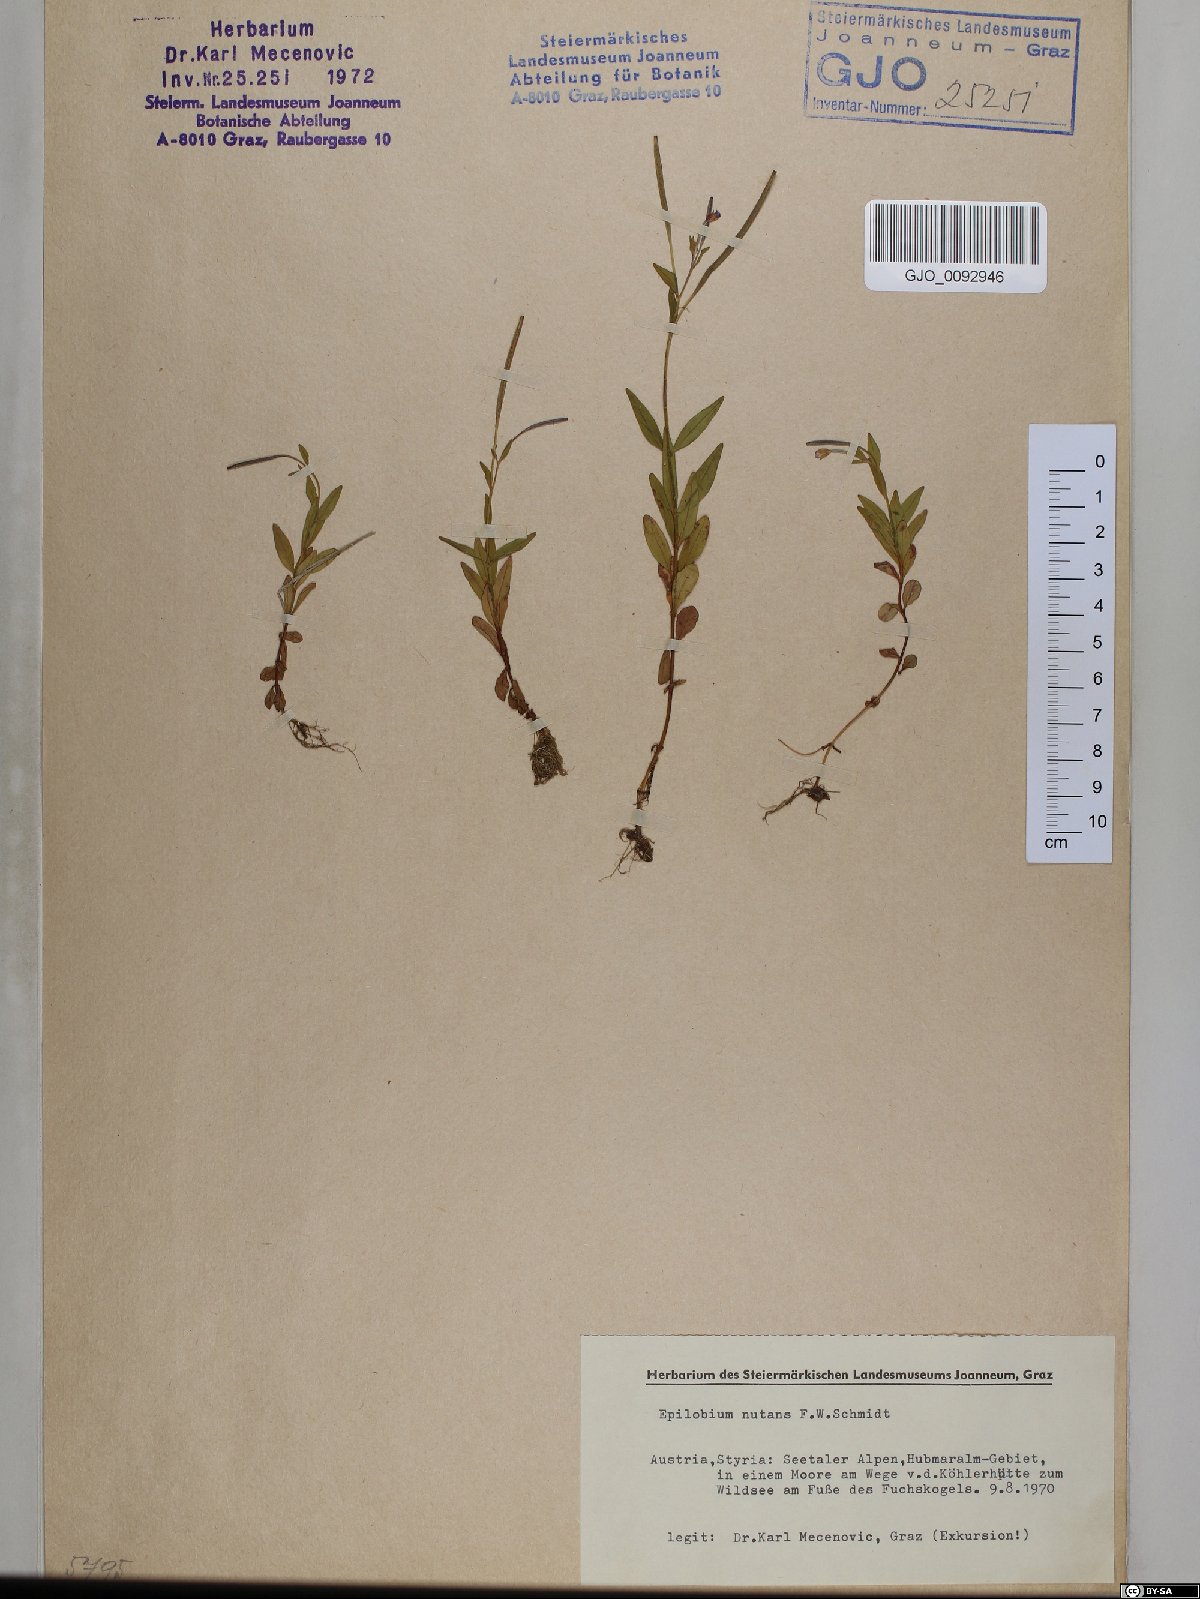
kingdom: Plantae
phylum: Tracheophyta
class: Magnoliopsida
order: Myrtales
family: Onagraceae
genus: Epilobium
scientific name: Epilobium nutans
